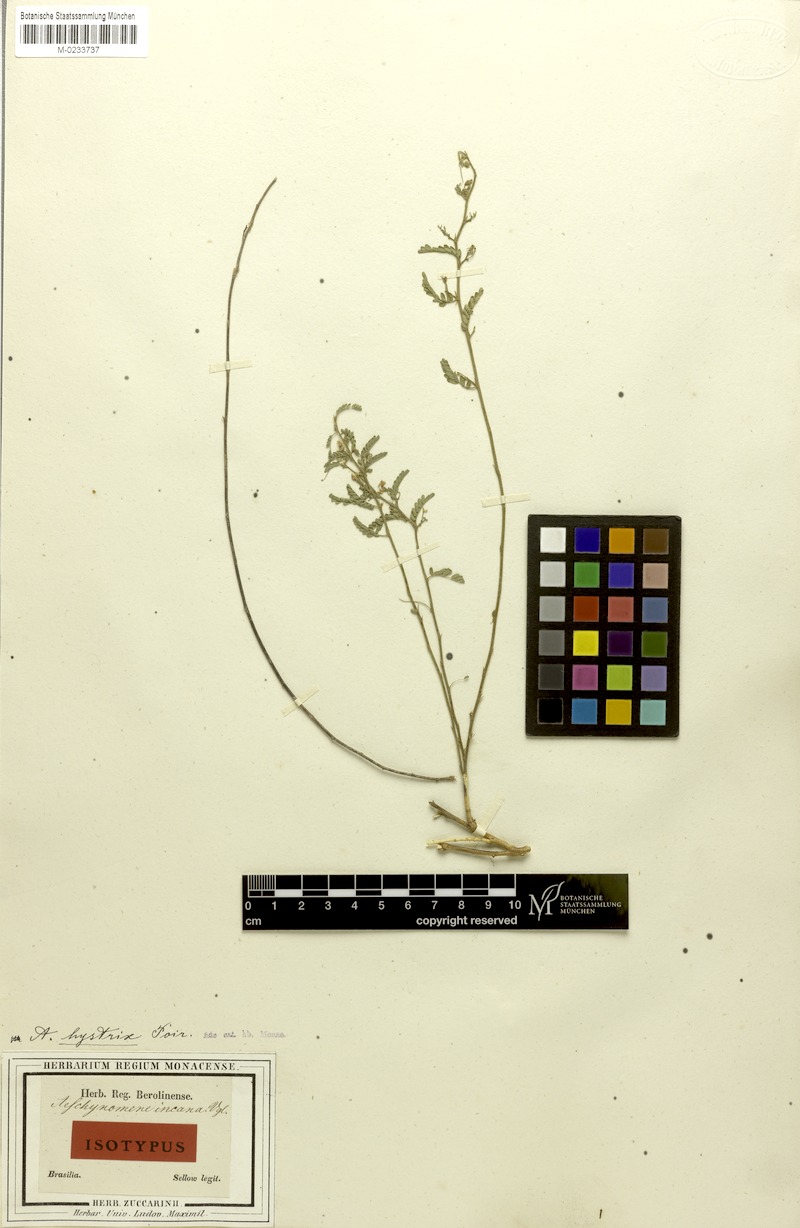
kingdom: Plantae
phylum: Tracheophyta
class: Magnoliopsida
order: Fabales
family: Fabaceae
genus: Ctenodon
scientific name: Ctenodon histrix
